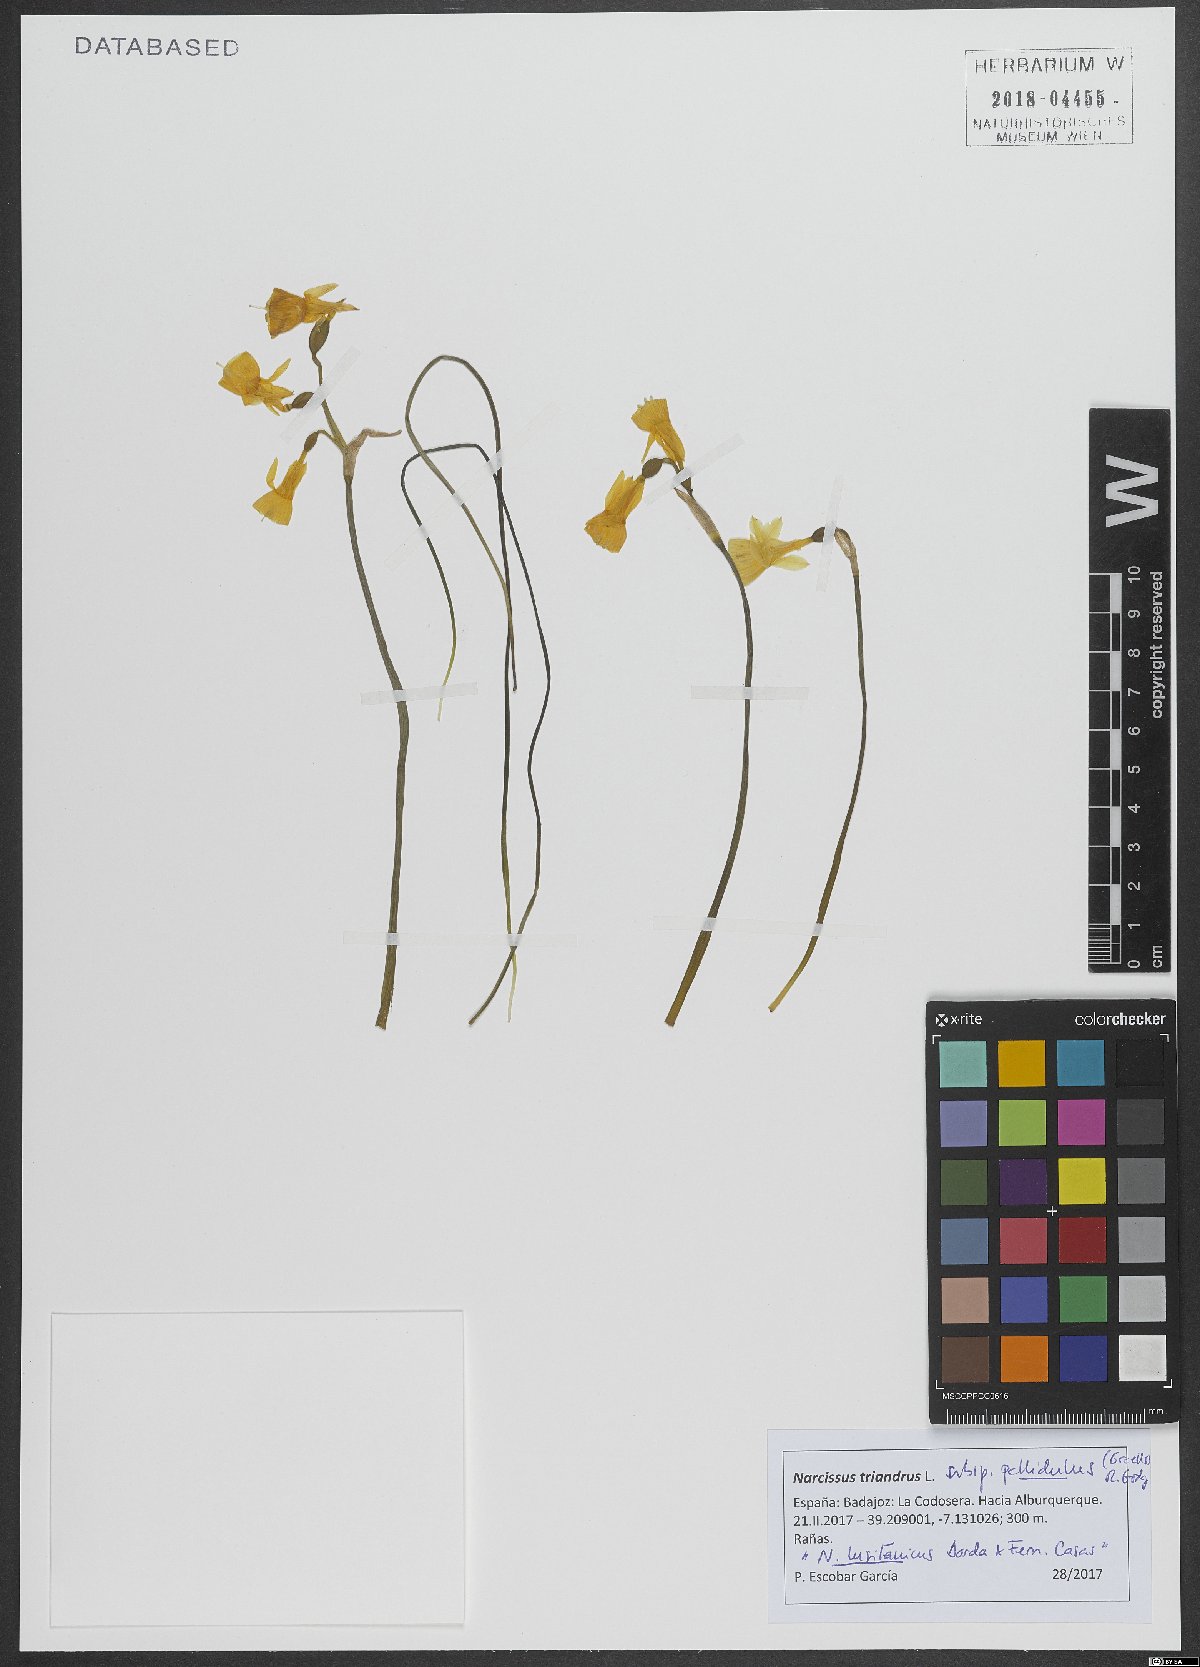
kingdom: Plantae
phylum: Tracheophyta
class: Liliopsida
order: Asparagales
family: Amaryllidaceae
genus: Narcissus
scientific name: Narcissus triandrus
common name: Angel's-tears
